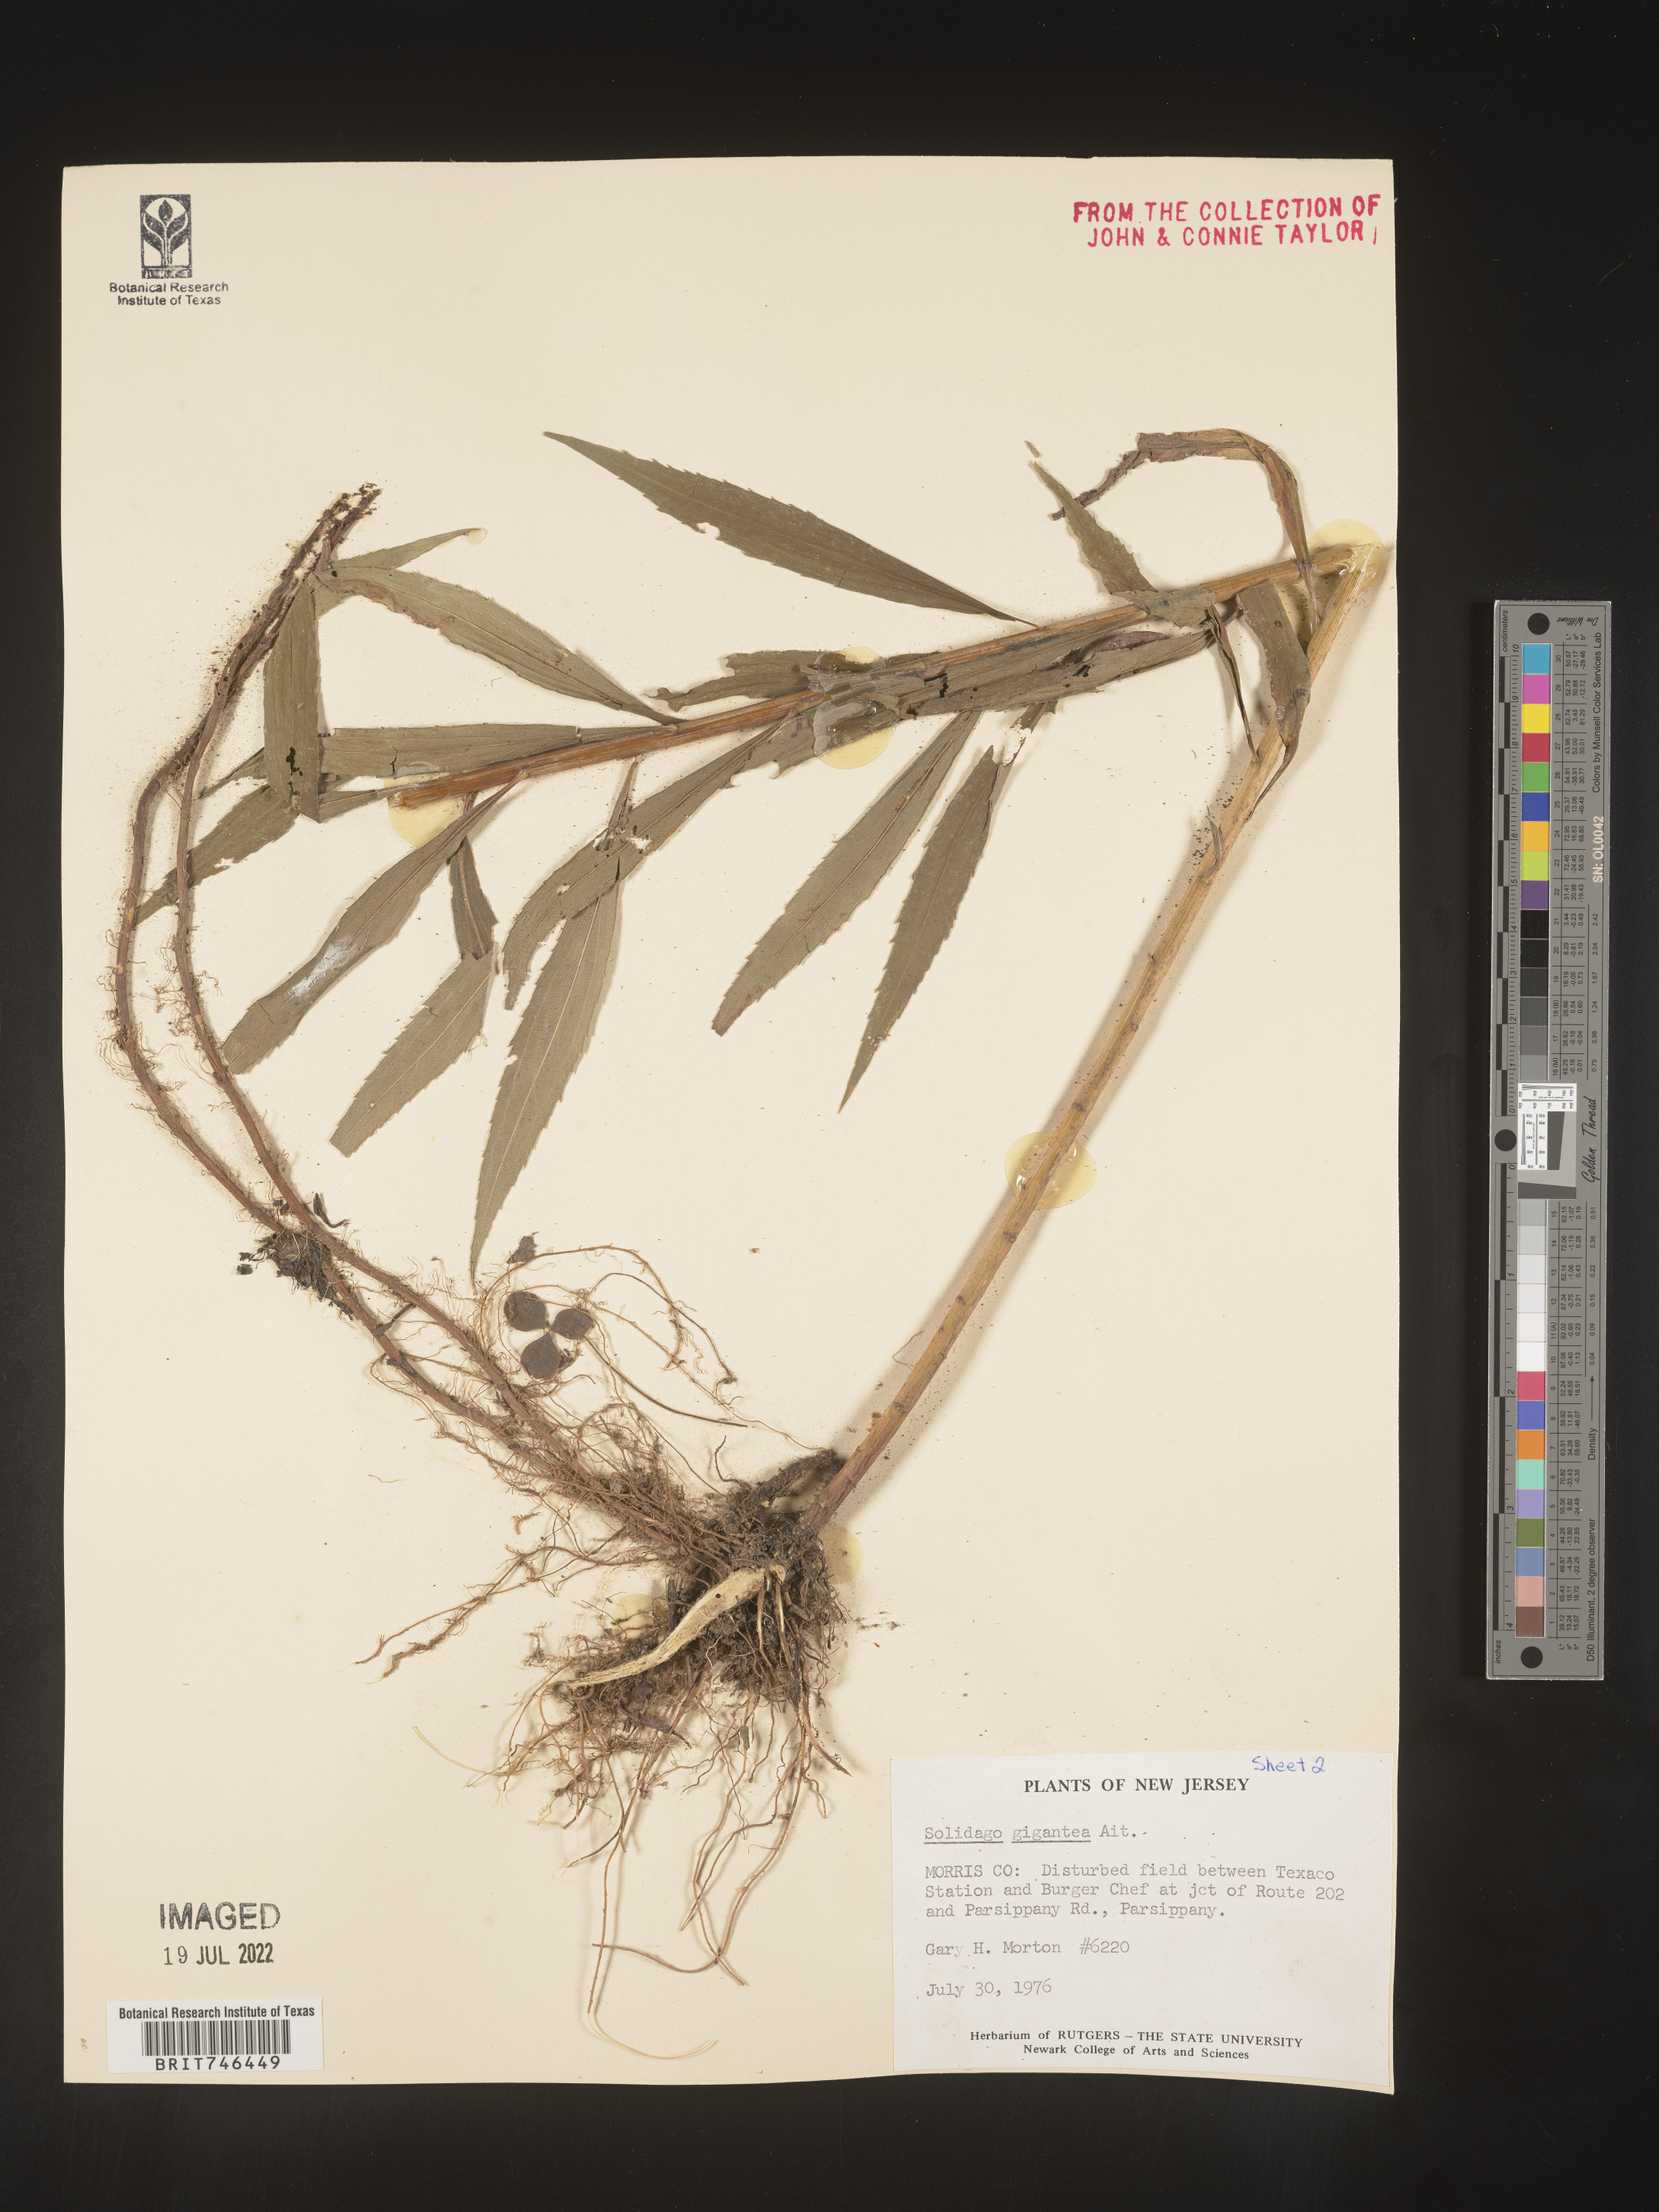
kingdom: Plantae
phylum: Tracheophyta
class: Magnoliopsida
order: Asterales
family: Asteraceae
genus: Solidago
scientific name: Solidago gigantea
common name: Giant goldenrod
